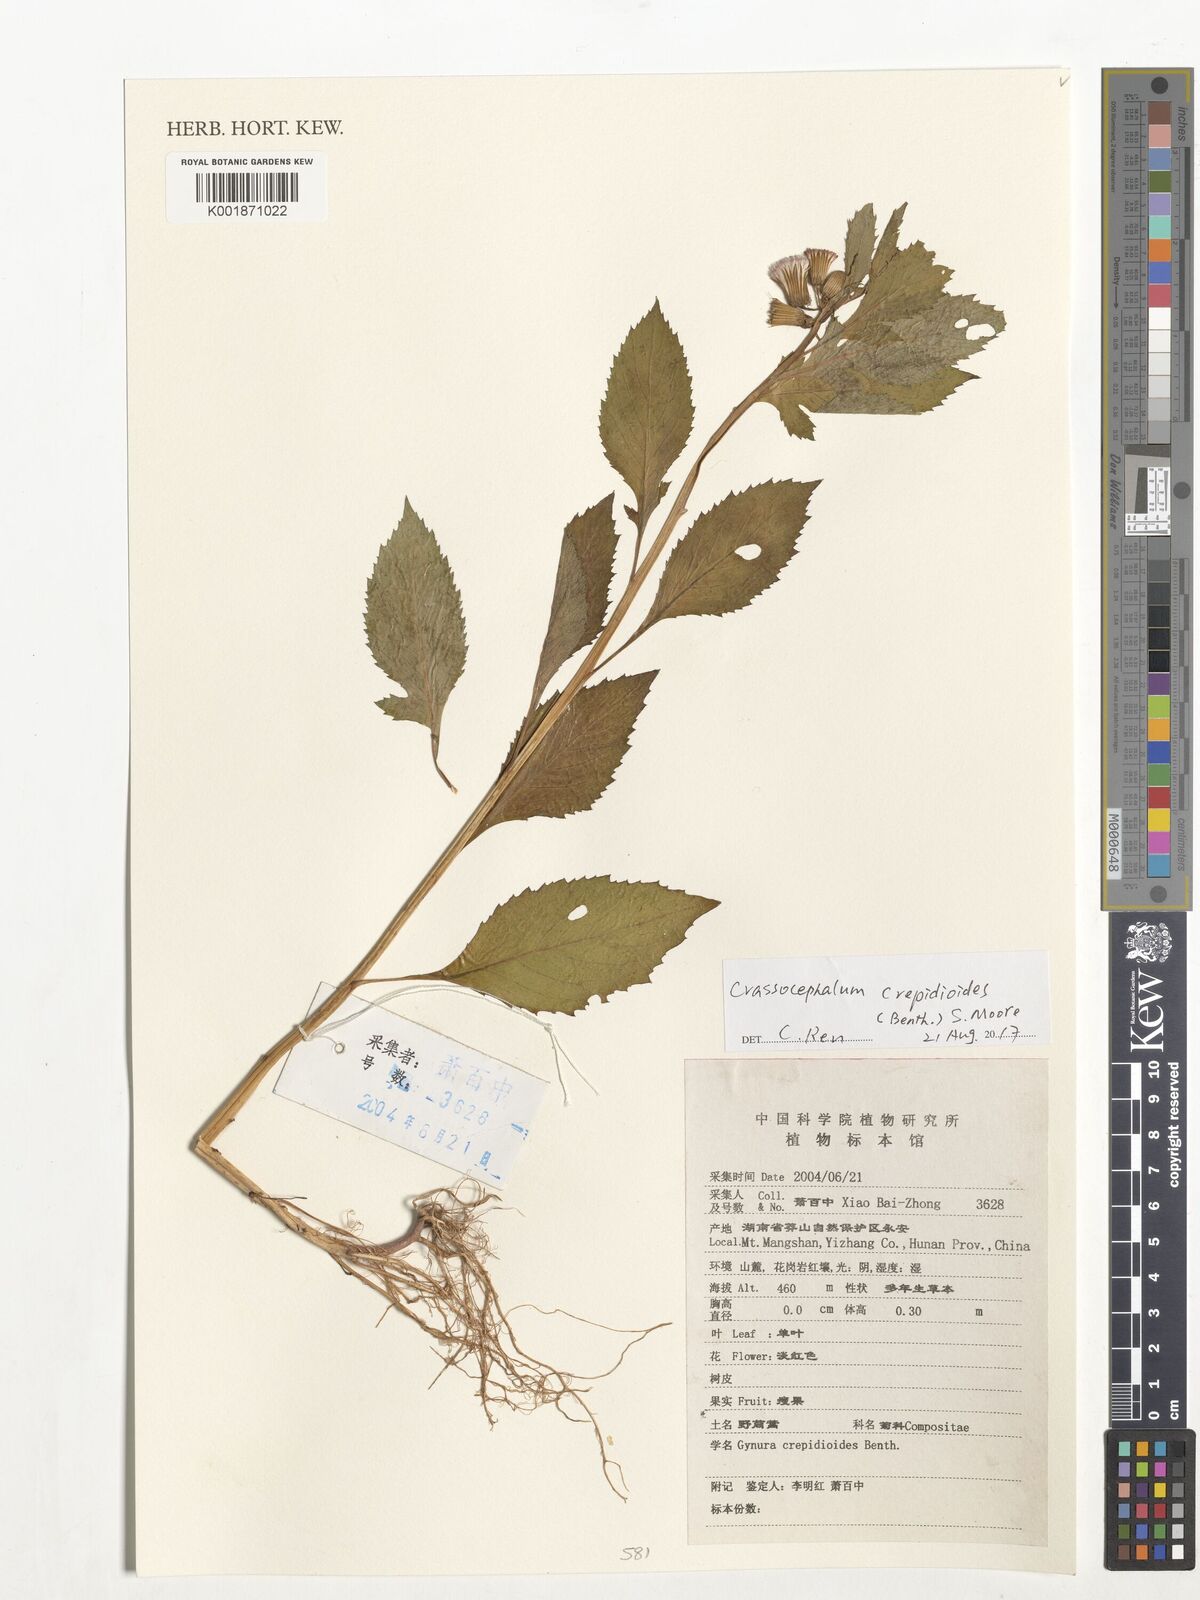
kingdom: Plantae
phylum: Tracheophyta
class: Magnoliopsida
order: Asterales
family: Asteraceae
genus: Crassocephalum
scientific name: Crassocephalum crepidioides
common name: Redflower ragleaf
